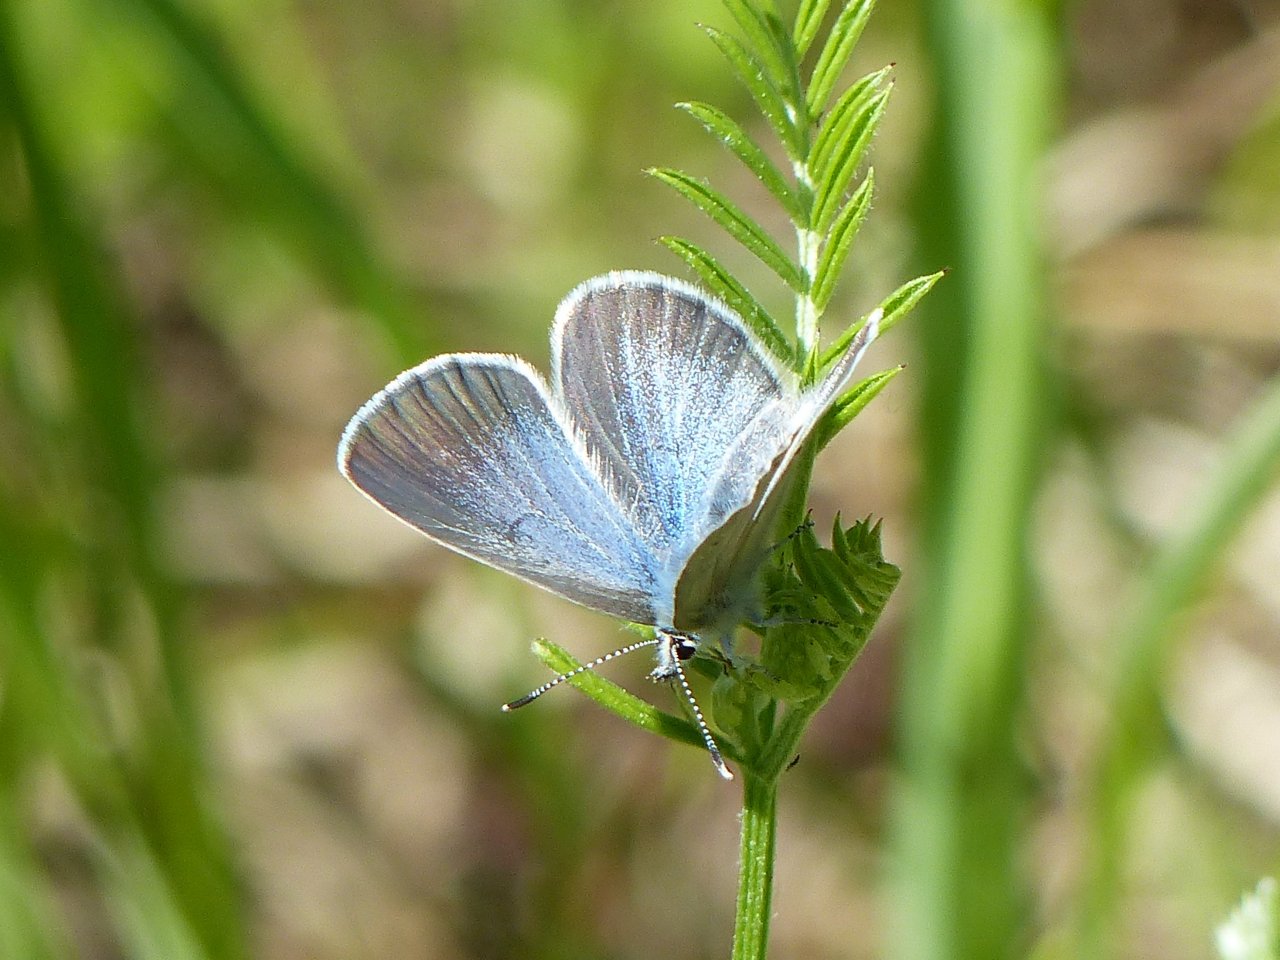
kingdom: Animalia
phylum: Arthropoda
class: Insecta
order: Lepidoptera
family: Lycaenidae
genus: Glaucopsyche
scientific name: Glaucopsyche lygdamus
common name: Silvery Blue
